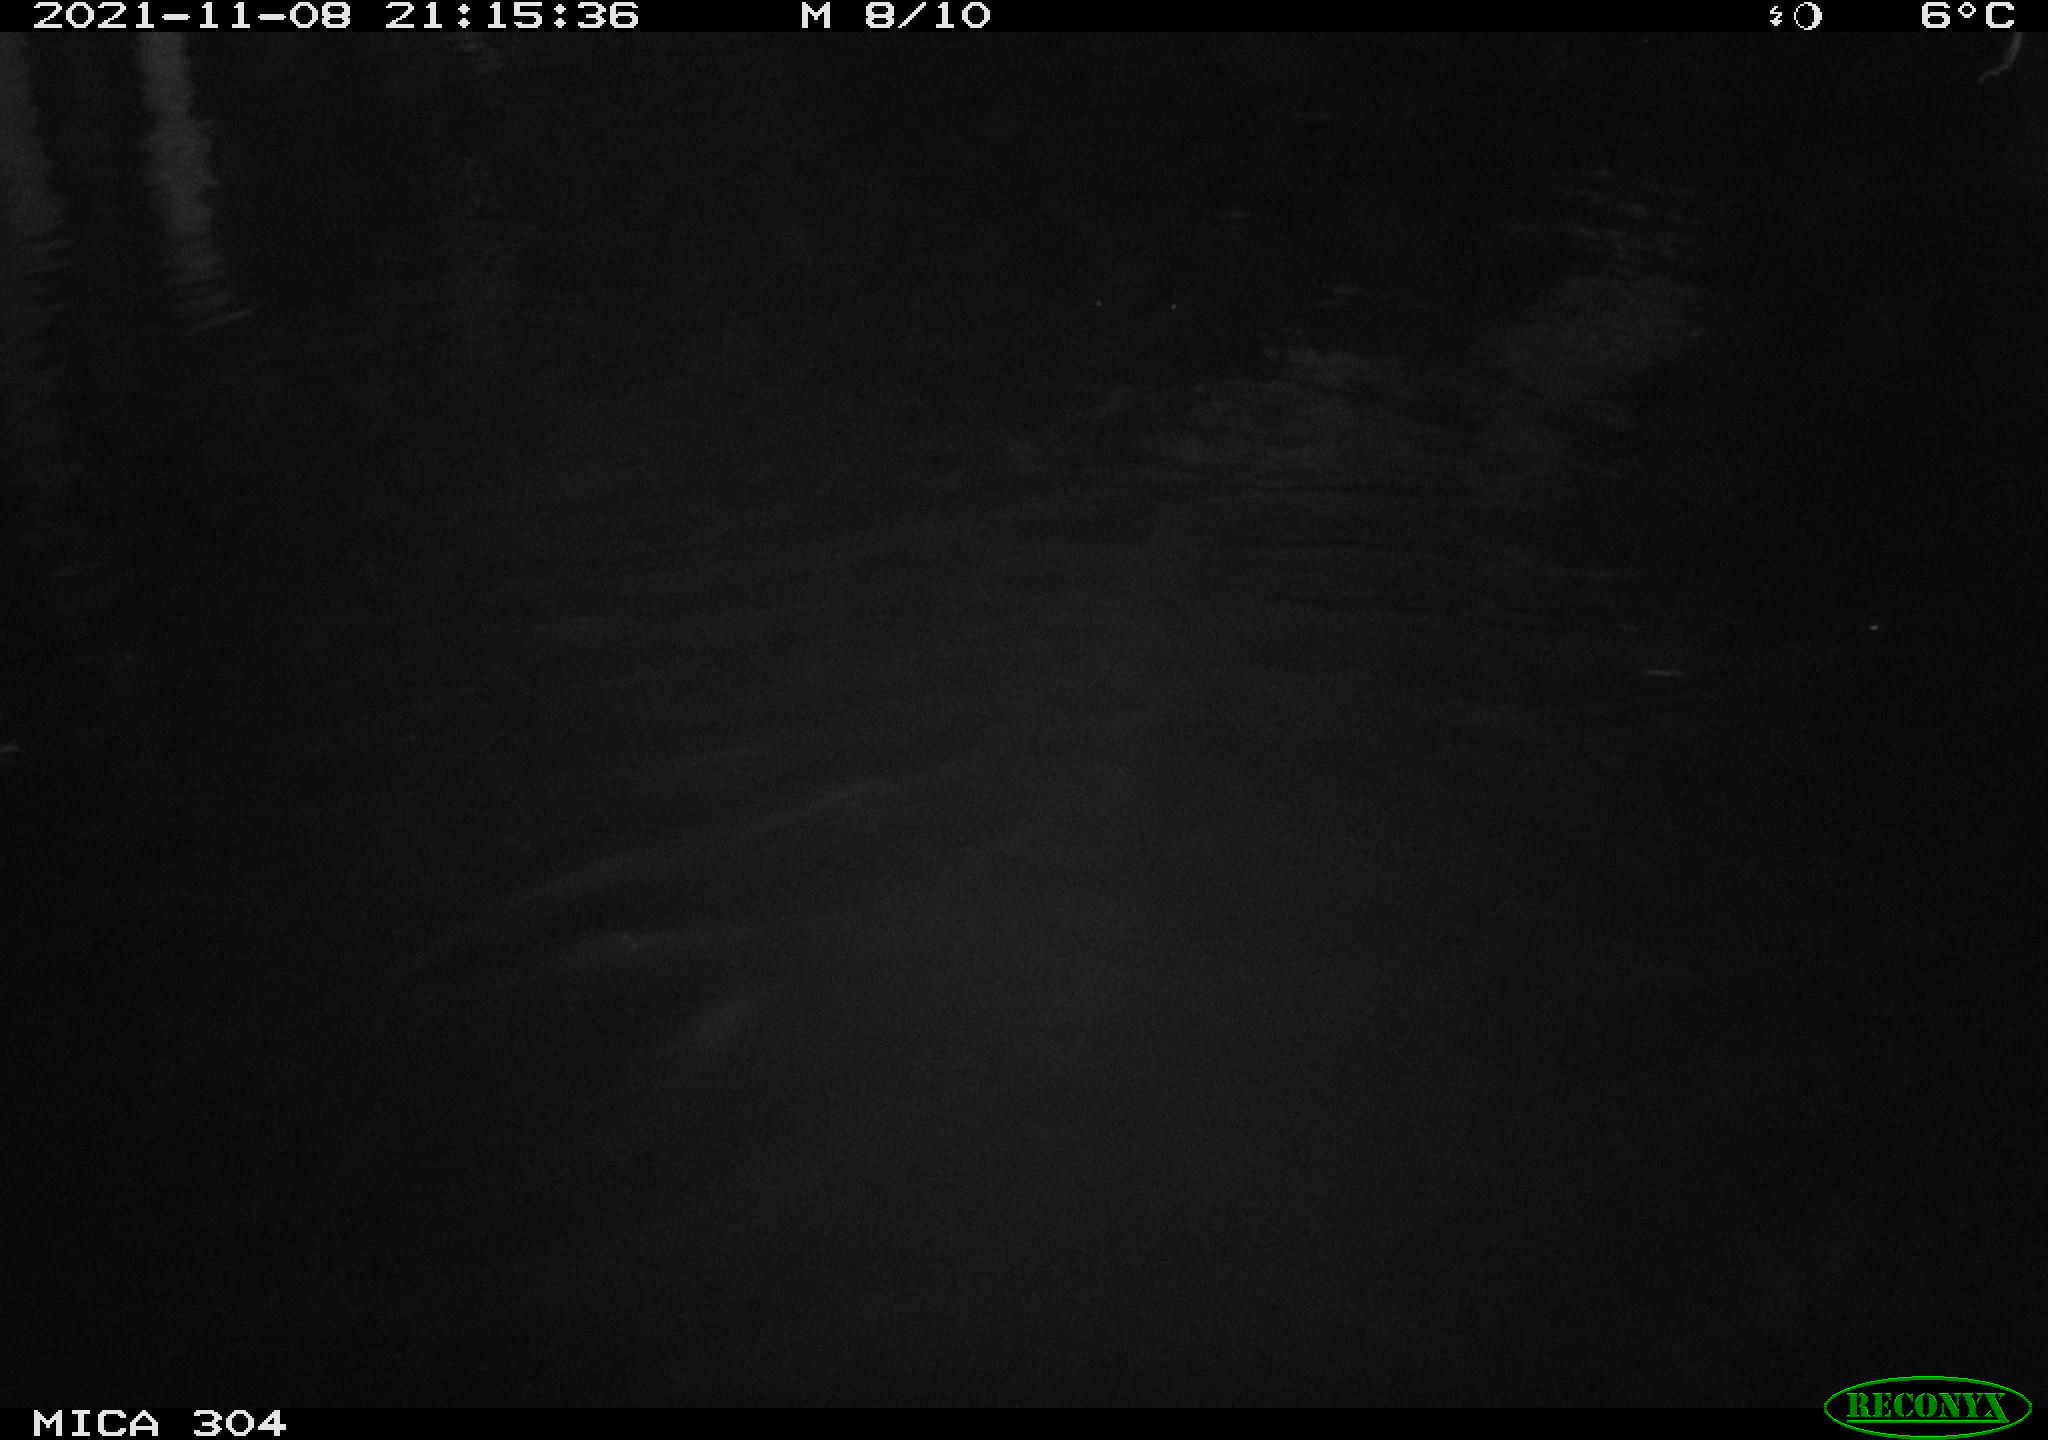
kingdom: Animalia
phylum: Chordata
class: Mammalia
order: Rodentia
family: Muridae
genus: Rattus
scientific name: Rattus norvegicus
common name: Brown rat
